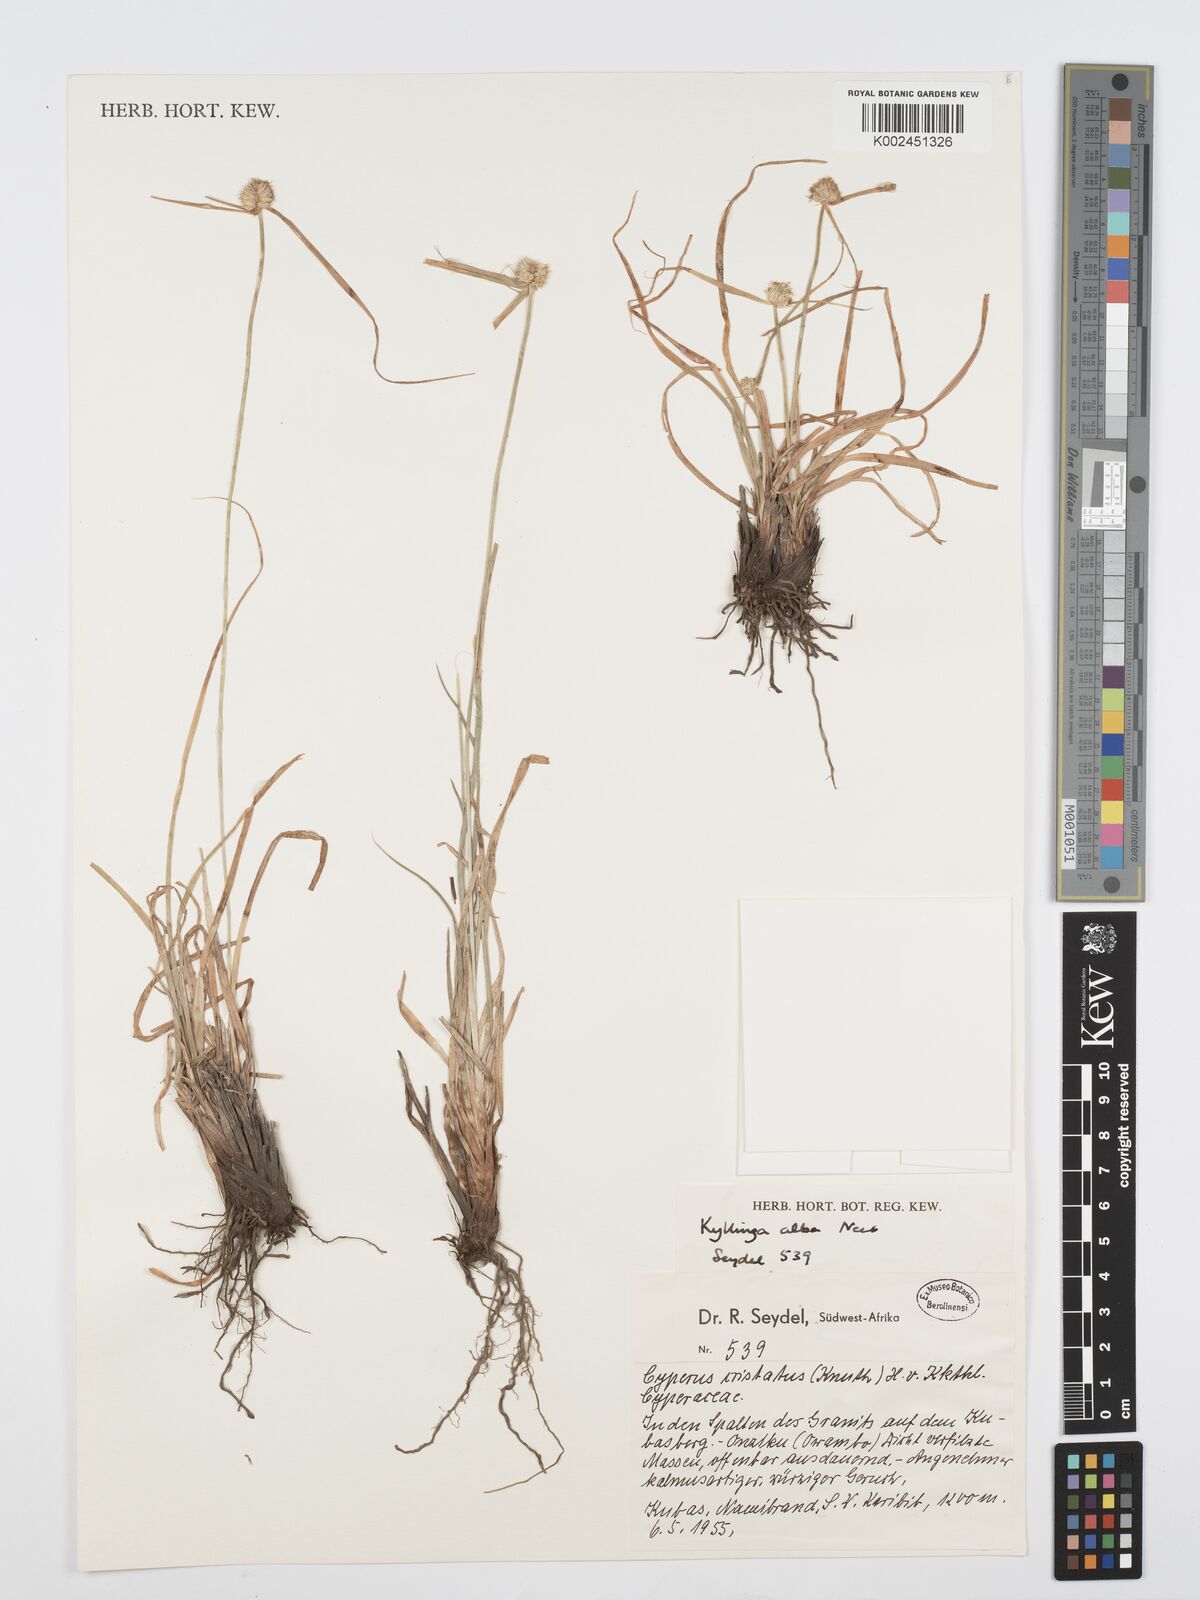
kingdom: Plantae
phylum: Tracheophyta
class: Liliopsida
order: Poales
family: Cyperaceae
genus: Cyperus
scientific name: Cyperus
